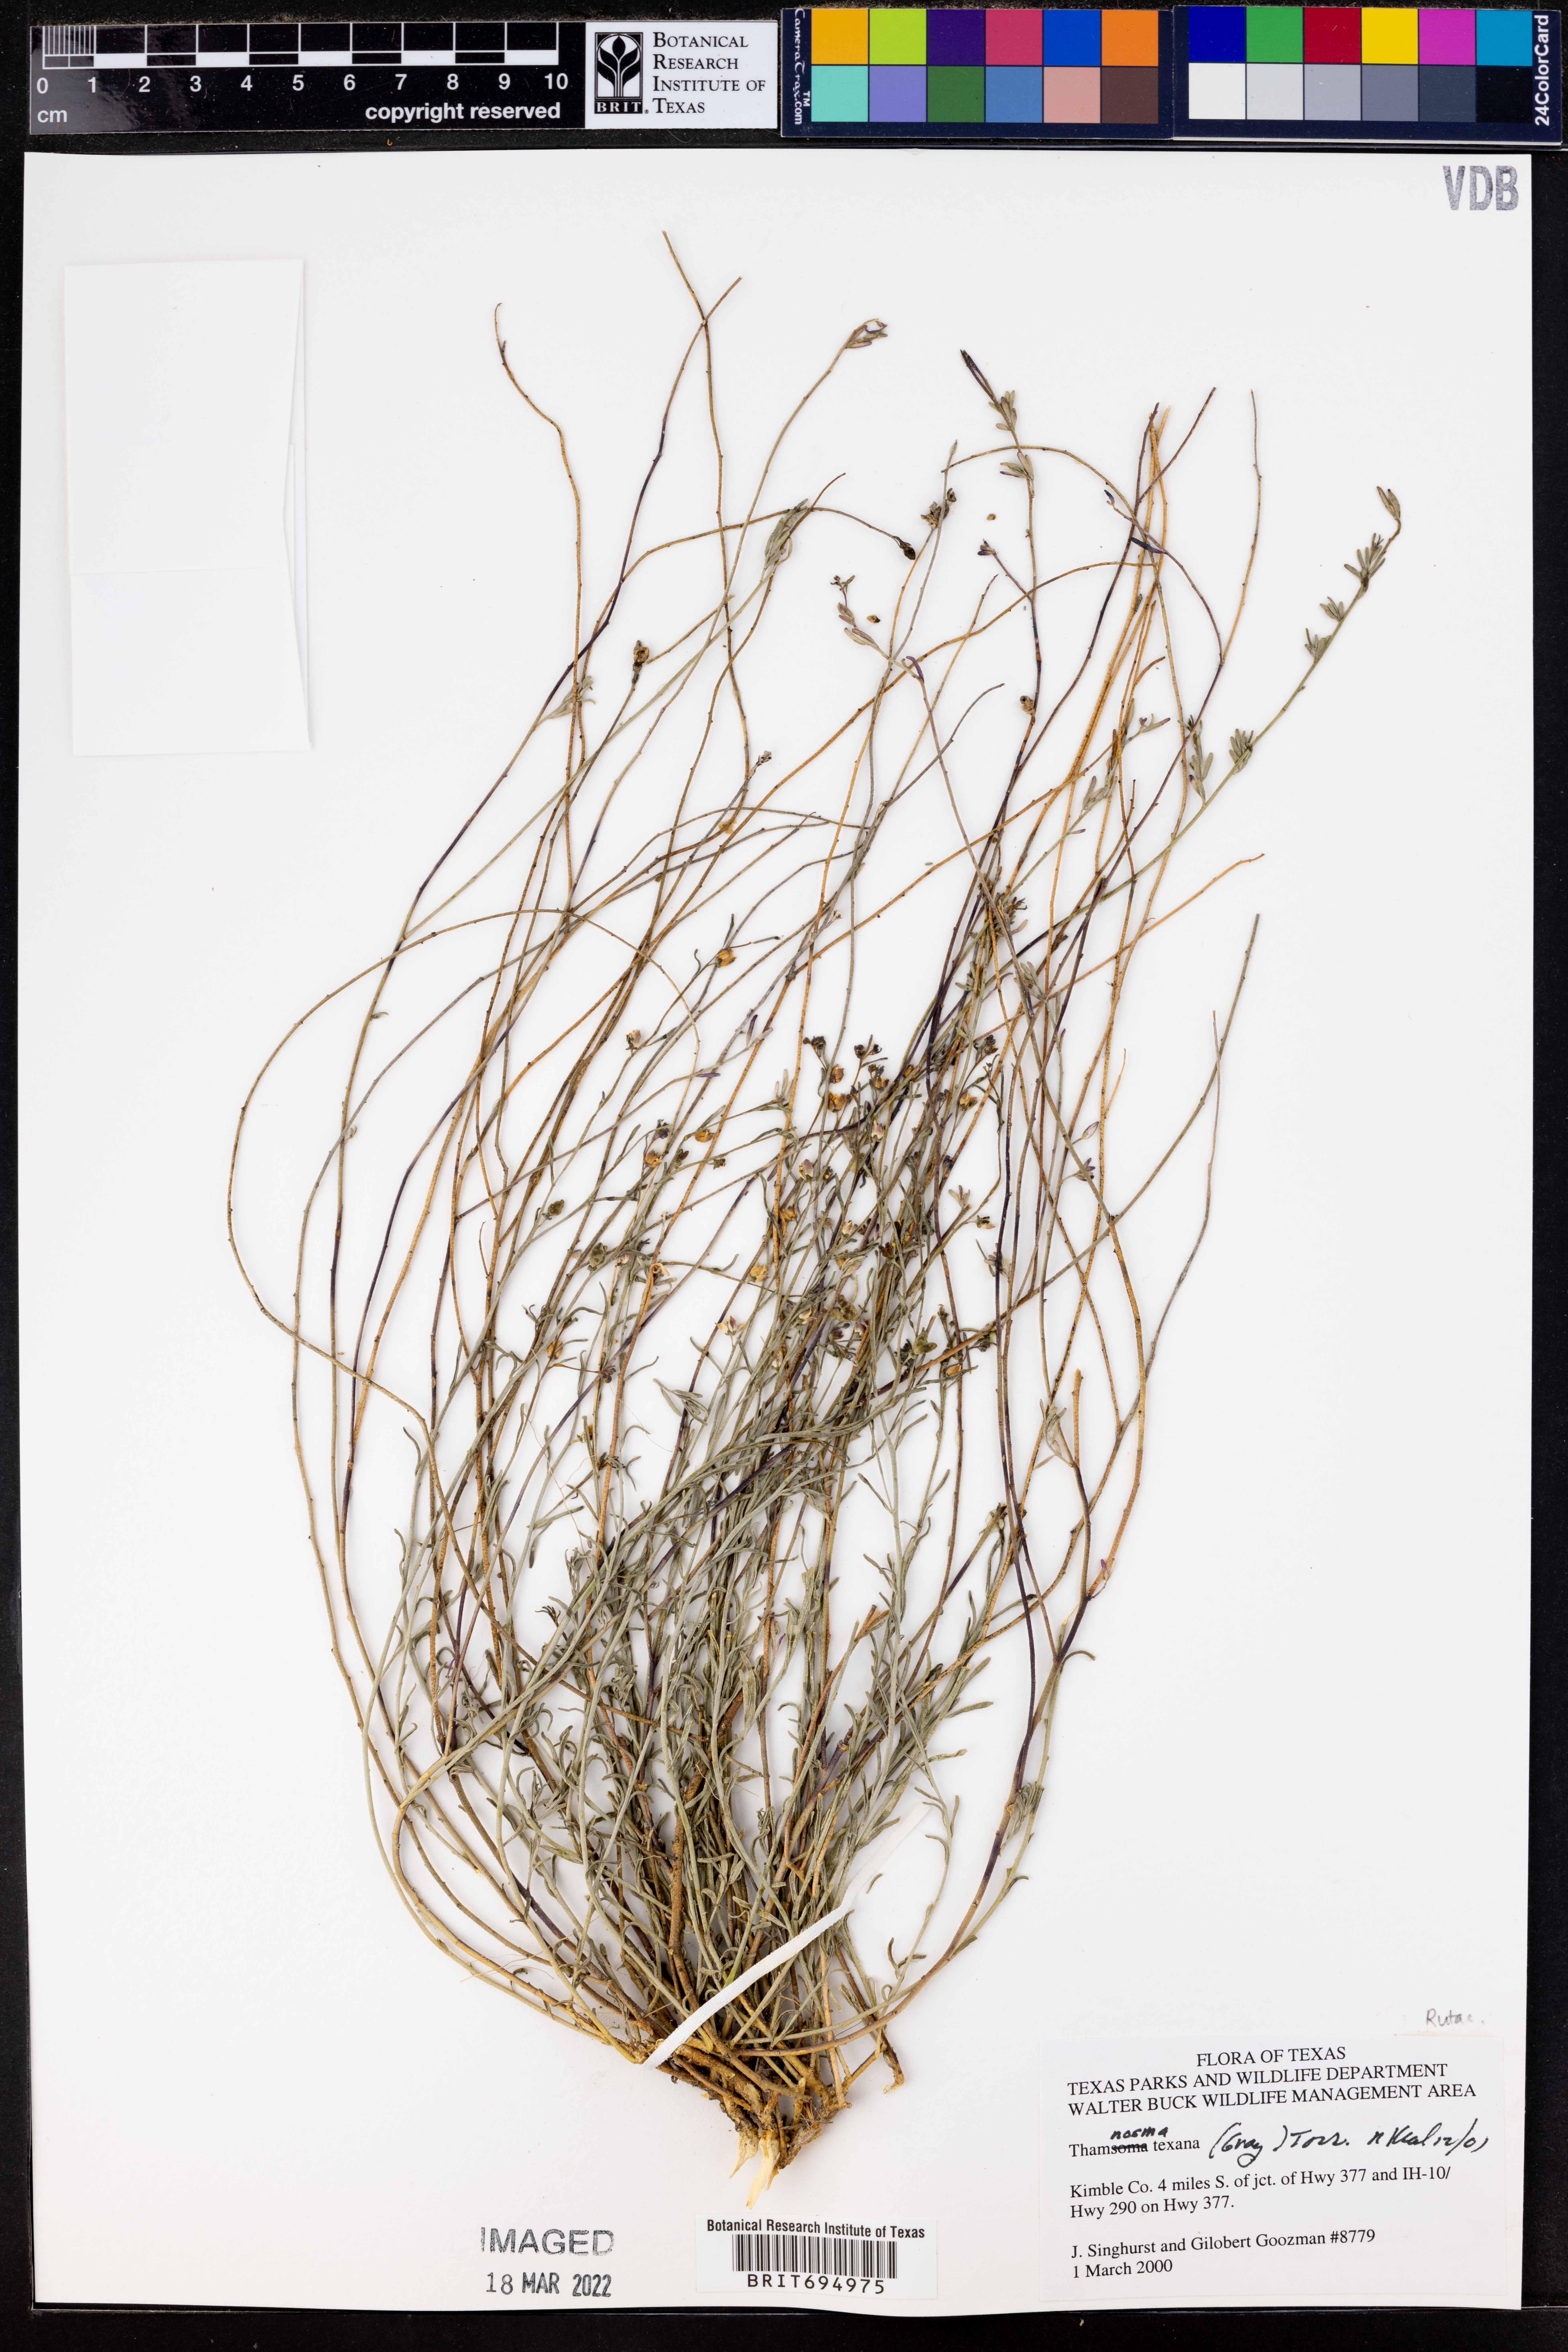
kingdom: Plantae
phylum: Tracheophyta
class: Magnoliopsida
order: Sapindales
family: Rutaceae
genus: Thamnosma
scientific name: Thamnosma texana
